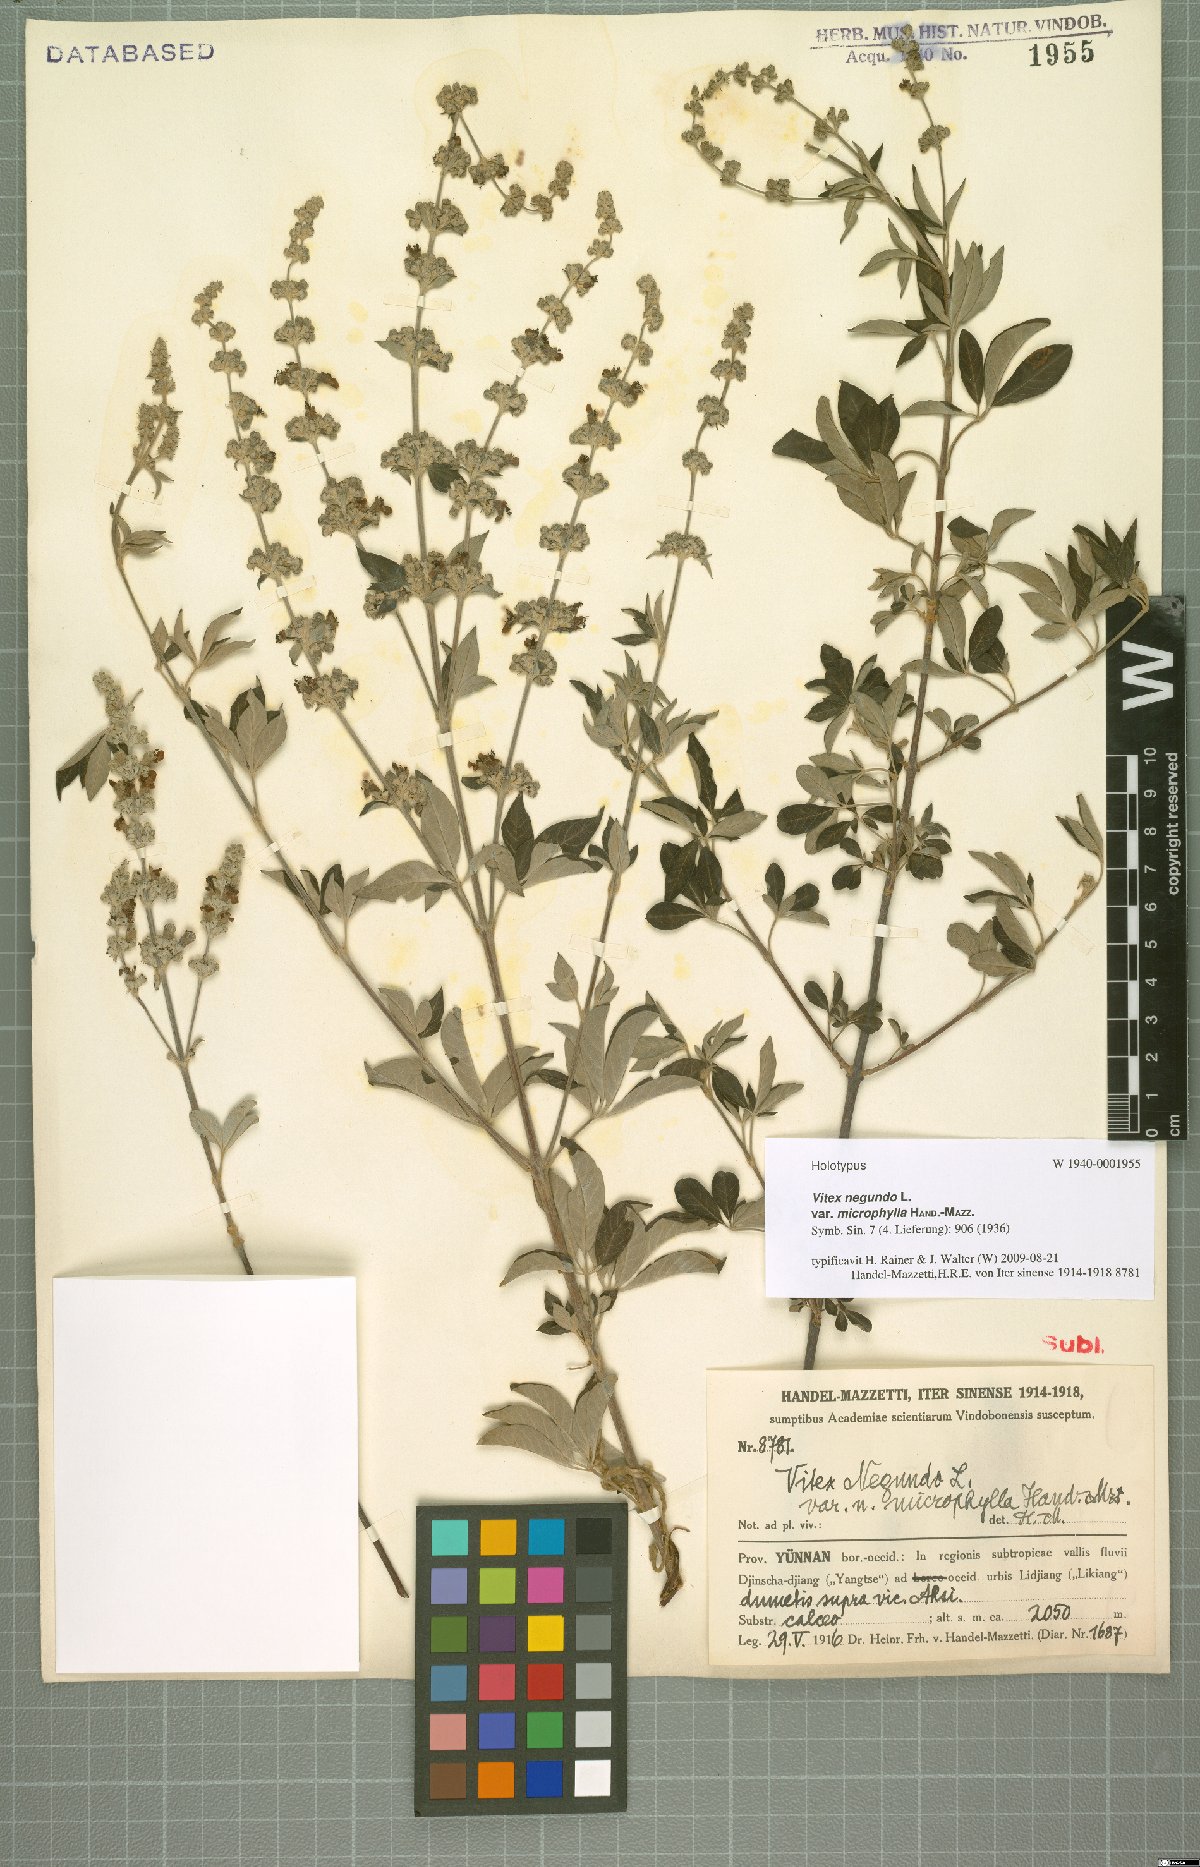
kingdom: Plantae
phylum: Tracheophyta
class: Magnoliopsida
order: Lamiales
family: Lamiaceae
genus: Vitex
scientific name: Vitex negundo
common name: Chinese chastetree
